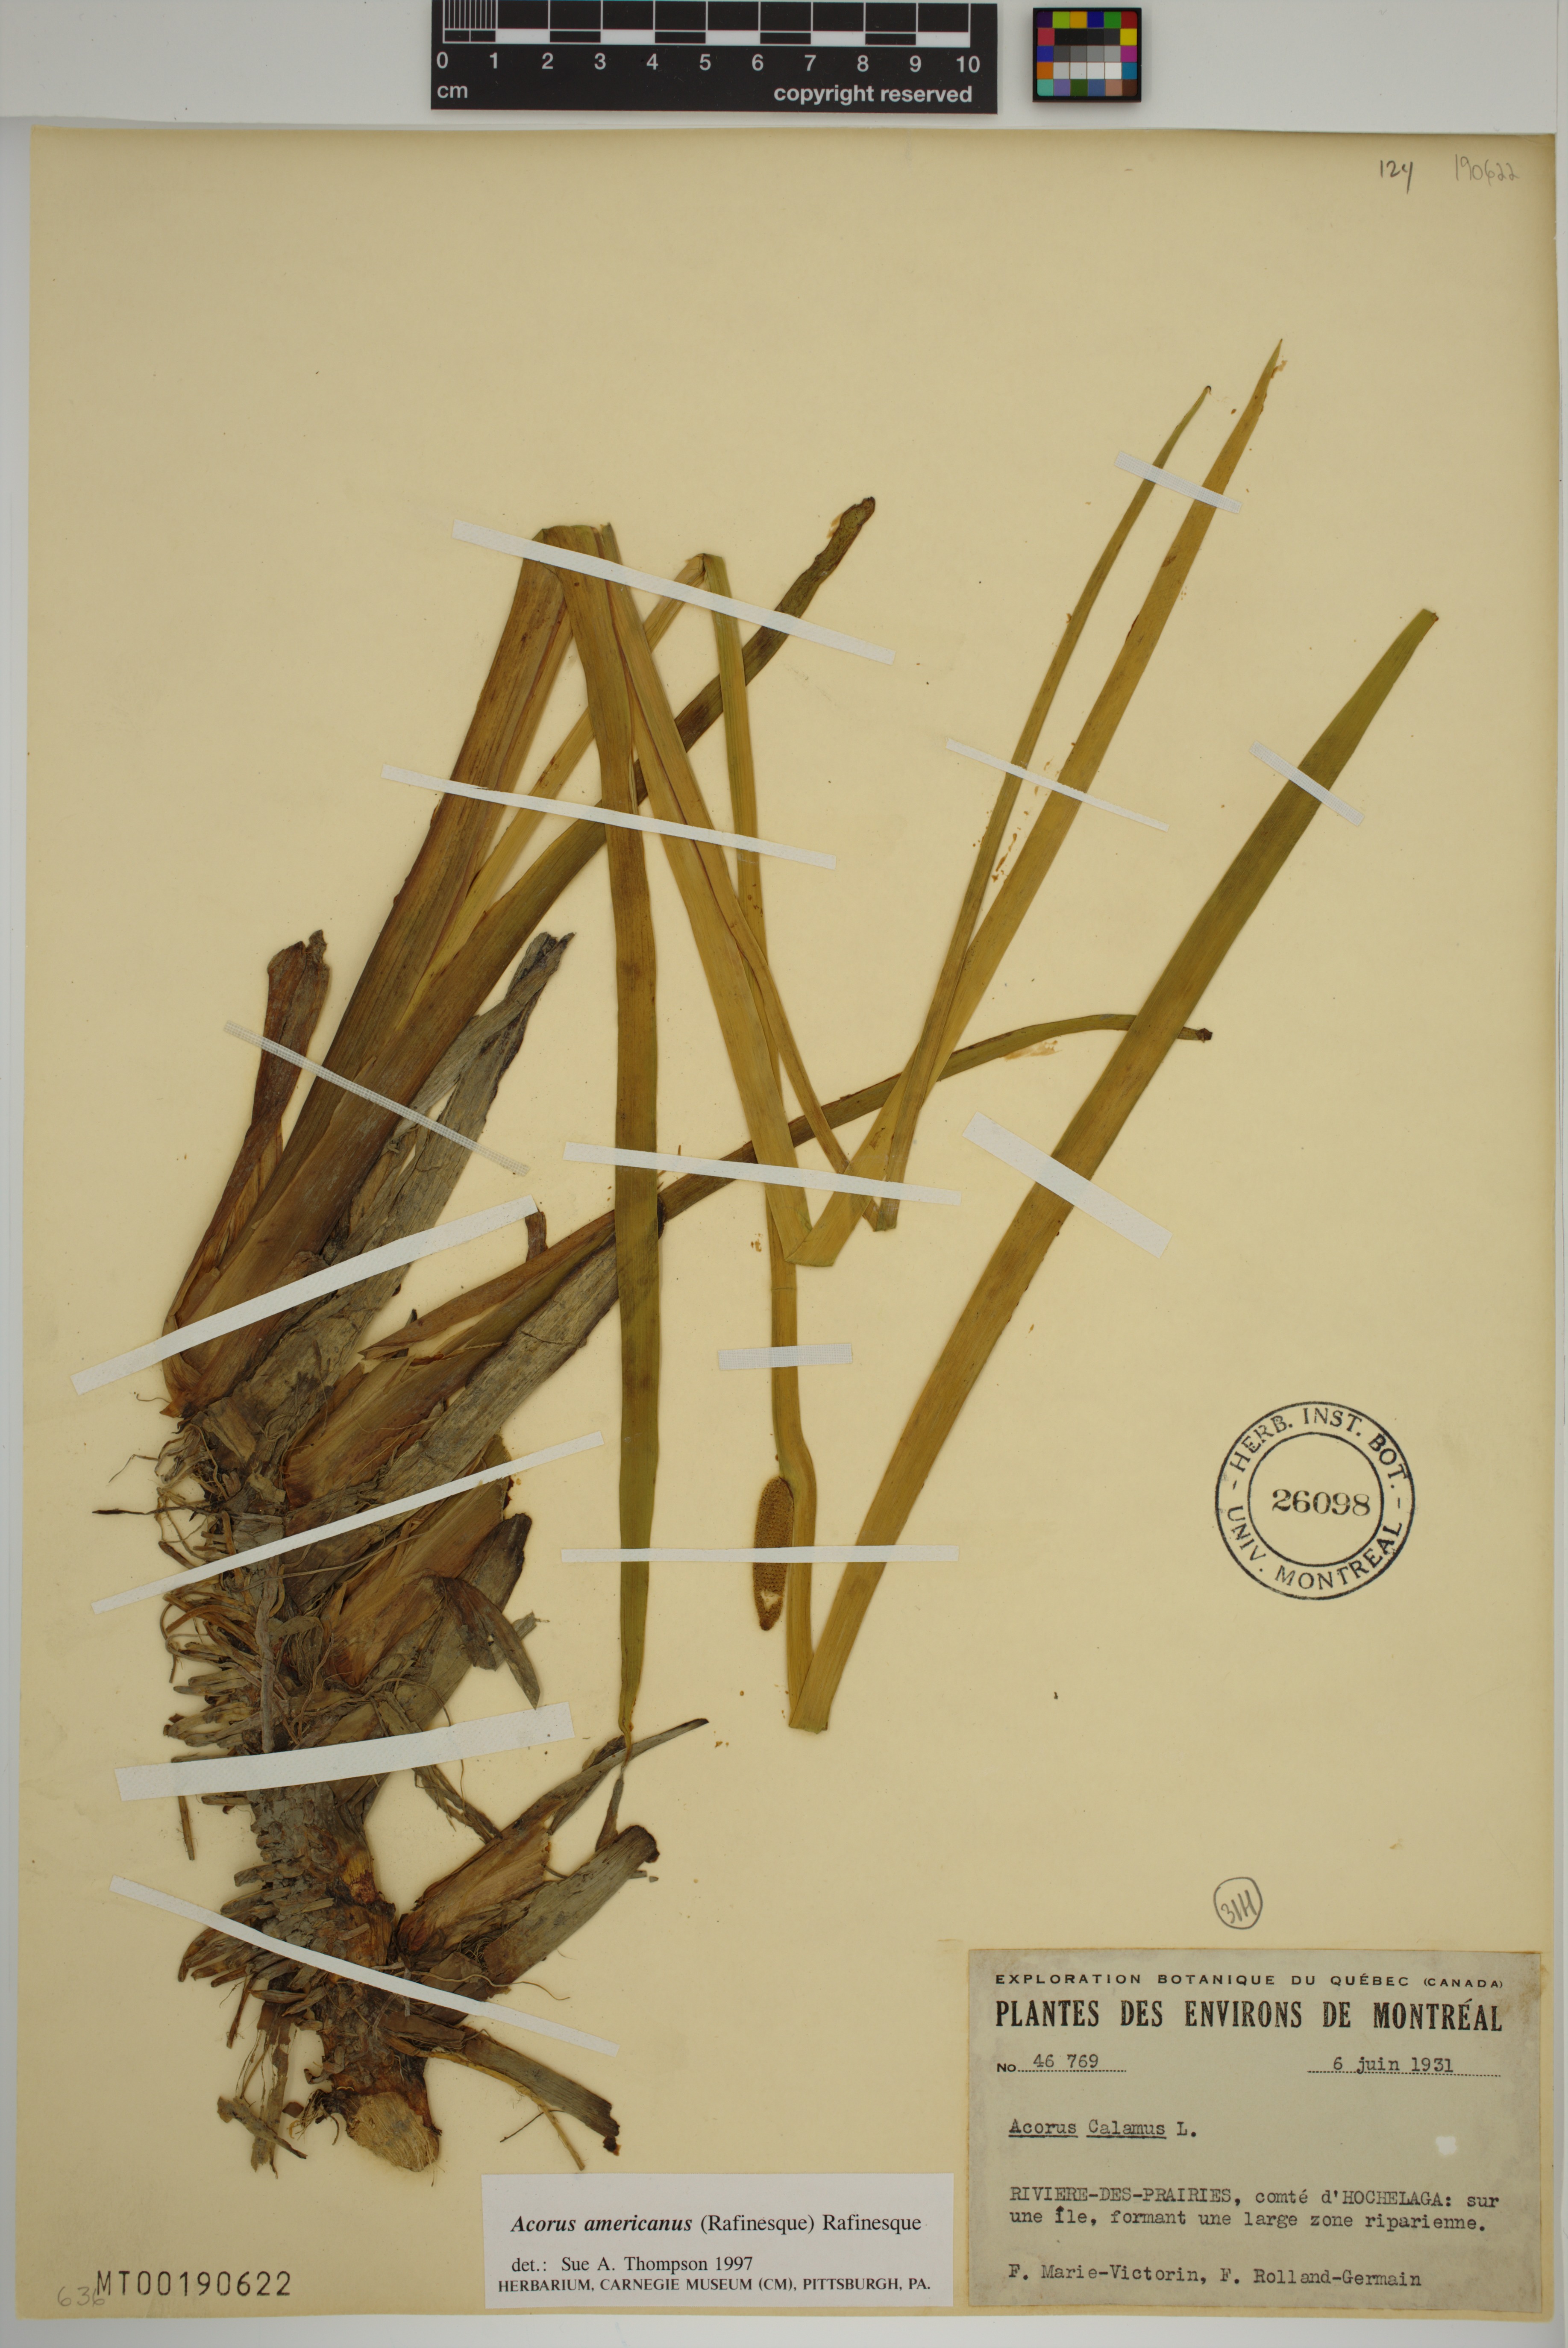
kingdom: Plantae
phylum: Tracheophyta
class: Liliopsida
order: Acorales
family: Acoraceae
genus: Acorus
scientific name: Acorus calamus
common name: Sweet-flag
